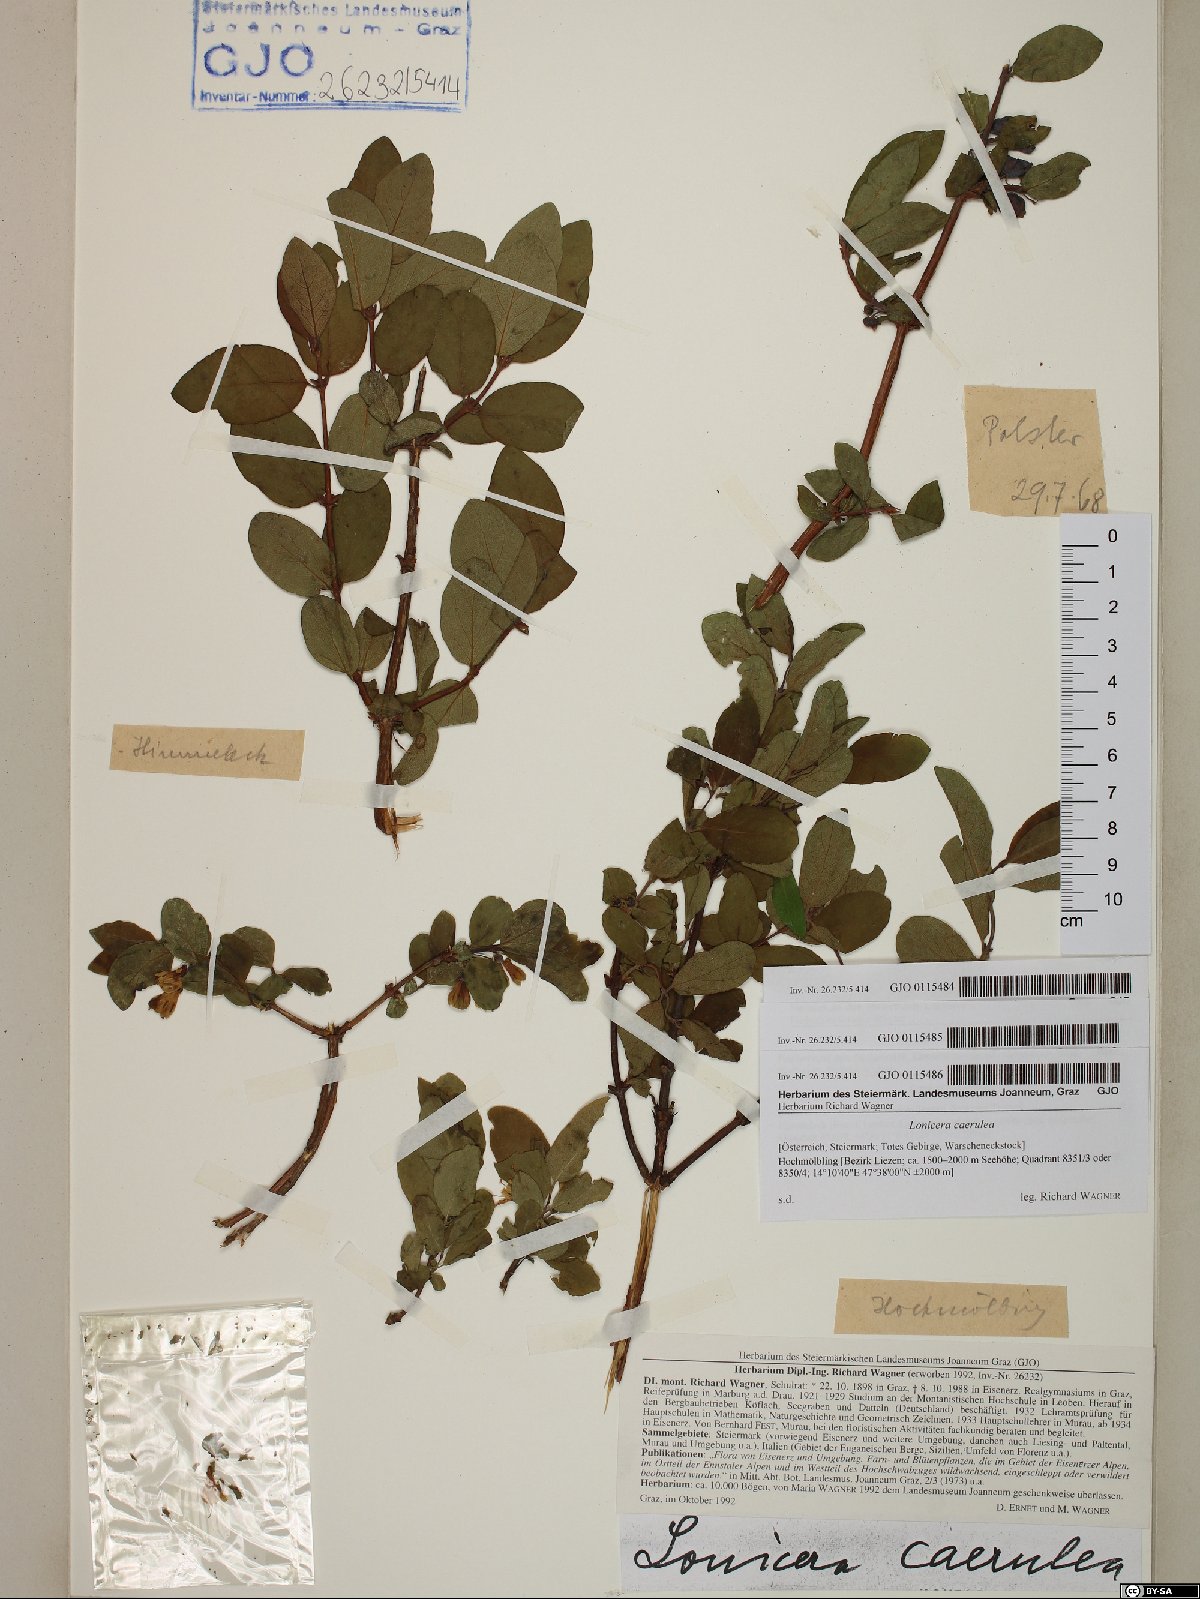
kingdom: Plantae
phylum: Tracheophyta
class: Magnoliopsida
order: Dipsacales
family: Caprifoliaceae
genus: Lonicera
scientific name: Lonicera caerulea
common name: Blue honeysuckle
